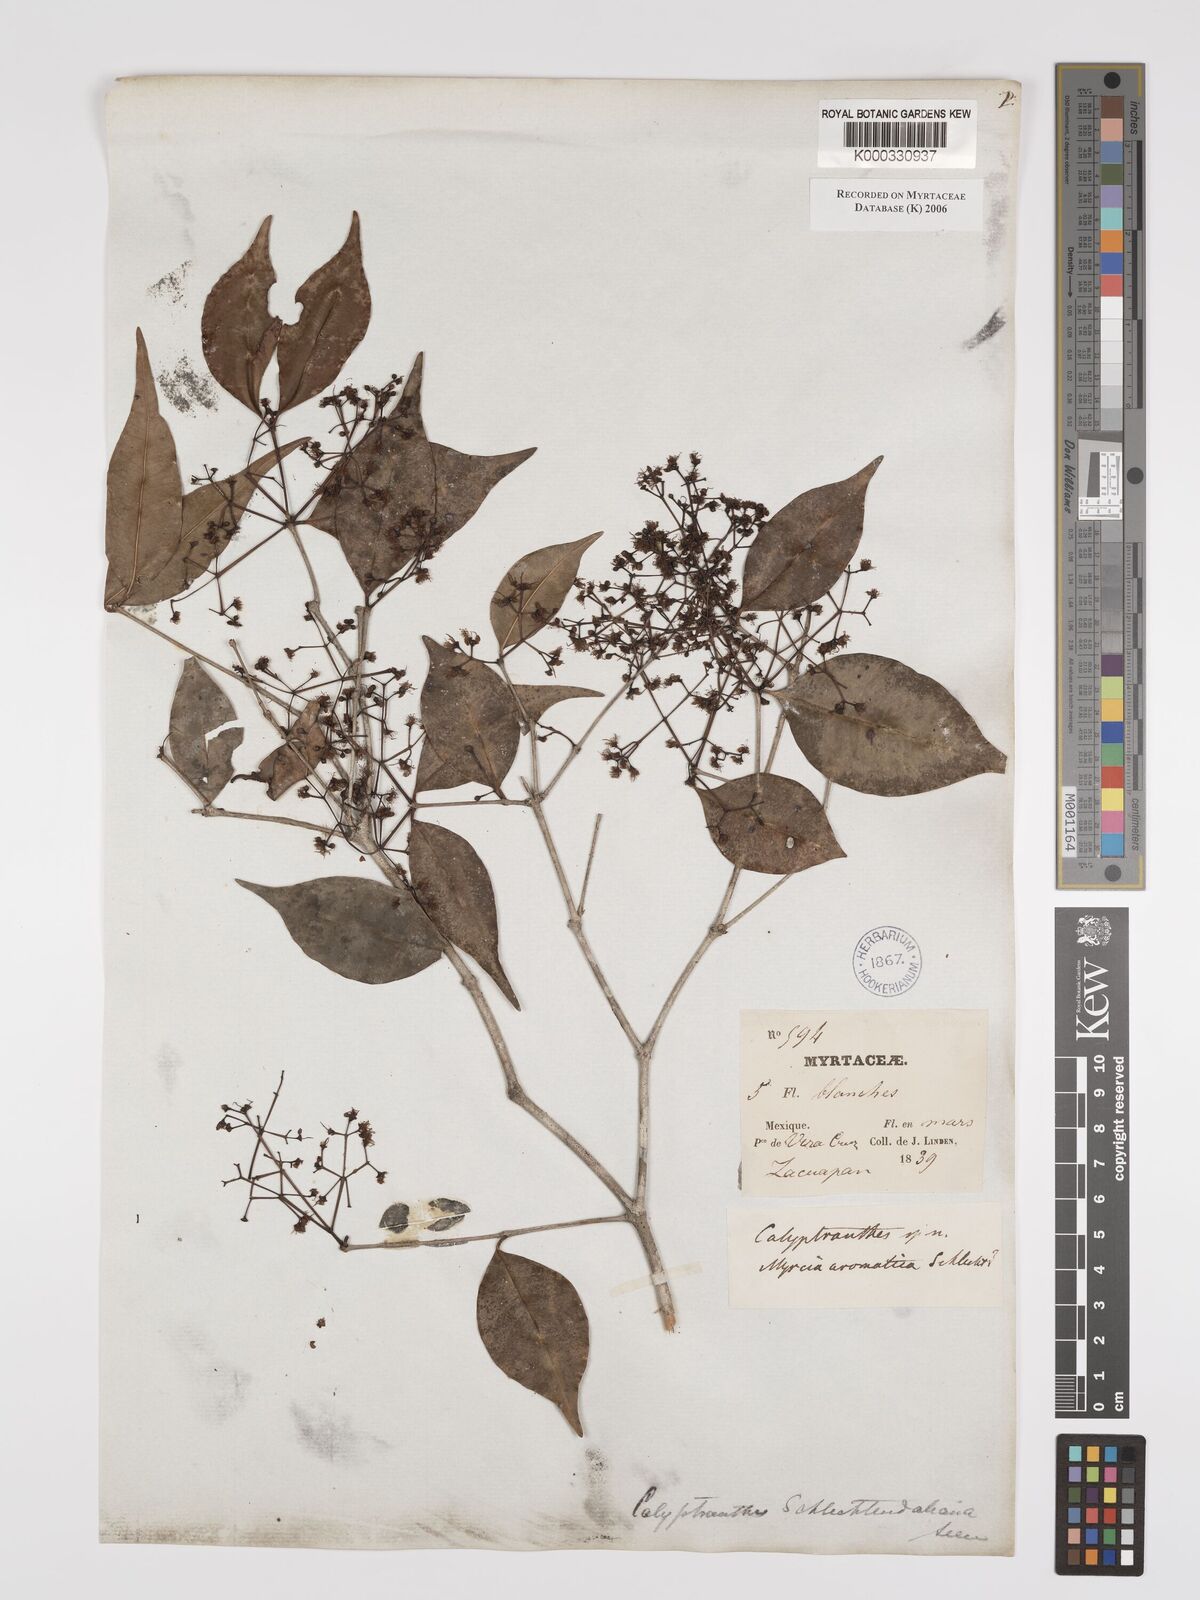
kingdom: Plantae
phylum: Tracheophyta
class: Magnoliopsida
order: Myrtales
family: Myrtaceae
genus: Myrcia
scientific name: Myrcia schiedeana
